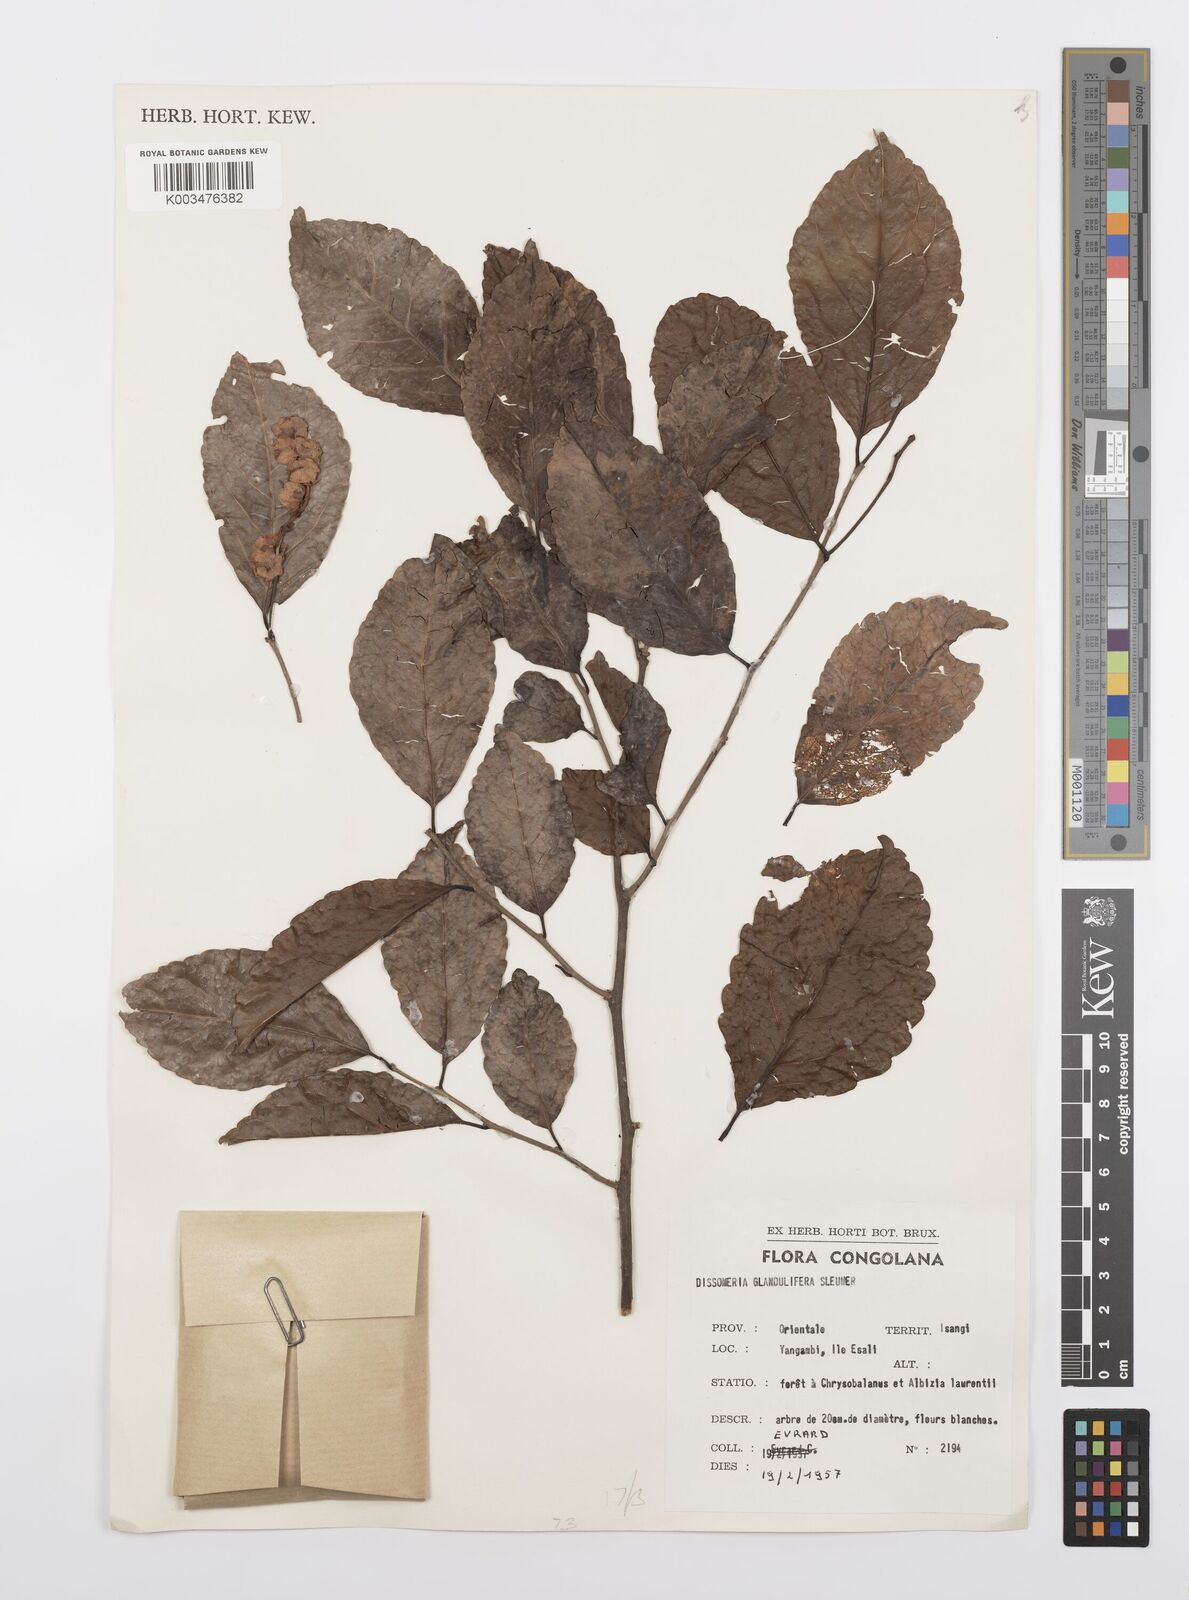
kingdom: Plantae
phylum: Tracheophyta
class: Magnoliopsida
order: Malpighiales
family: Salicaceae
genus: Dissomeria
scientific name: Dissomeria glanduligera
